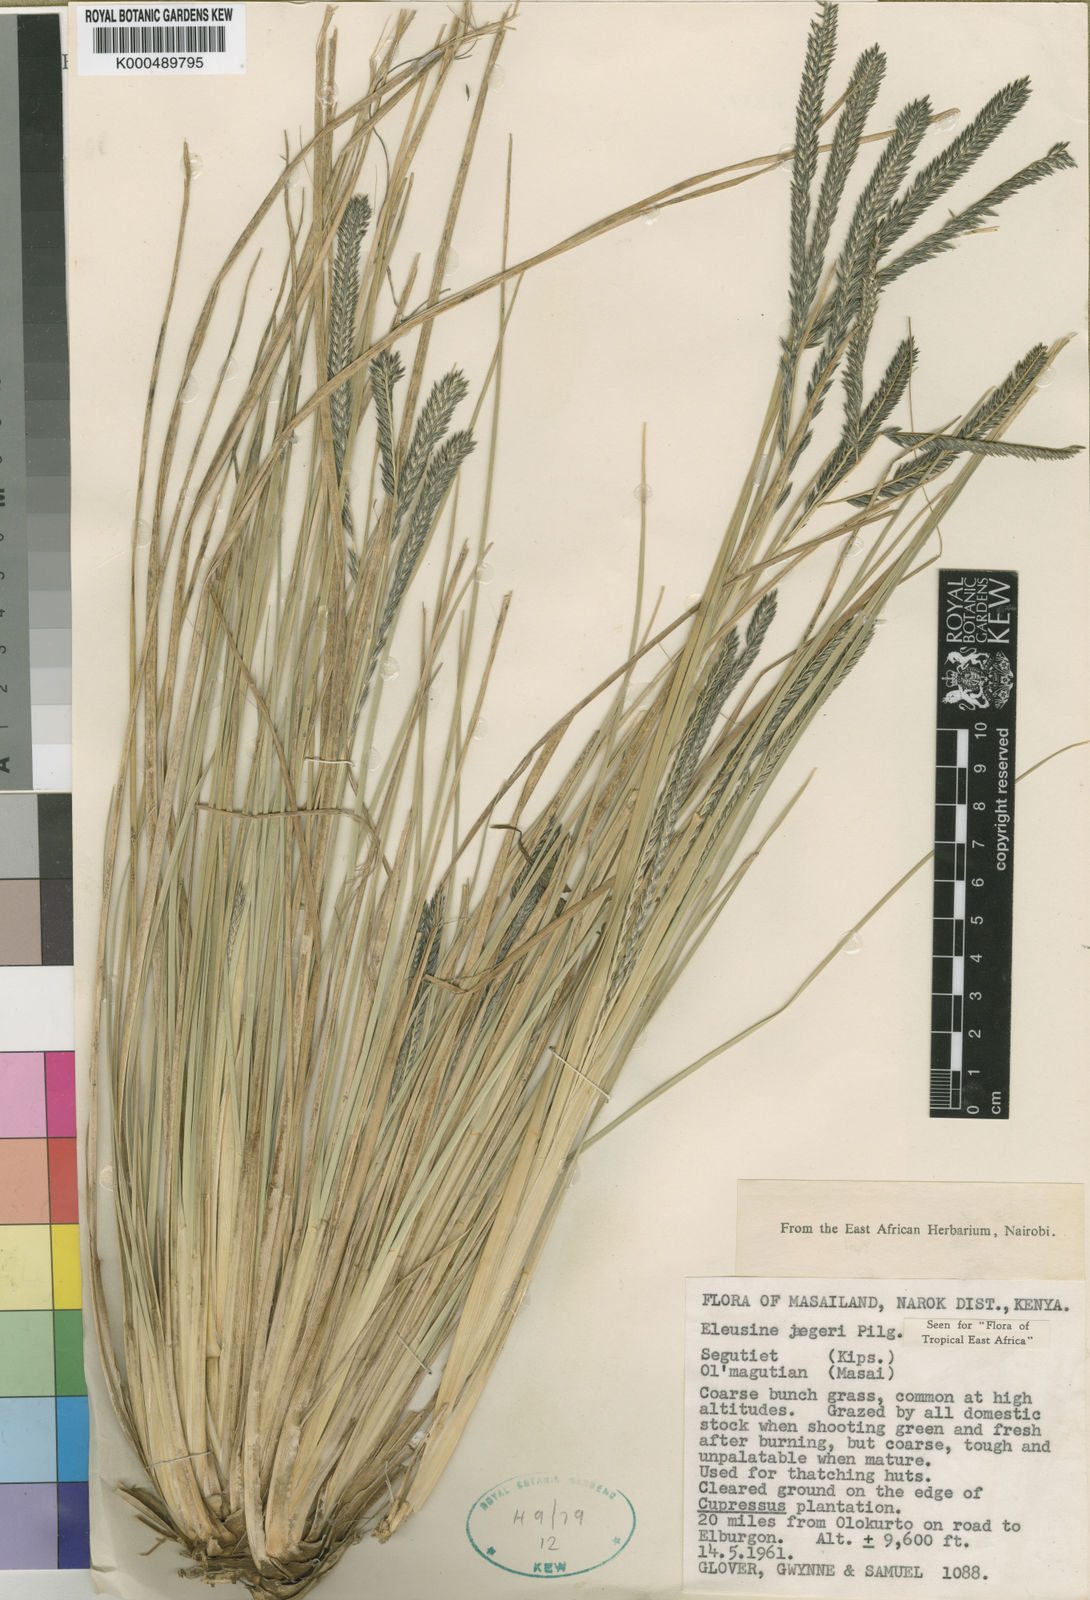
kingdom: Plantae
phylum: Tracheophyta
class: Liliopsida
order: Poales
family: Poaceae
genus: Eleusine
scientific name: Eleusine jaegeri
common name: Manyatta grass
